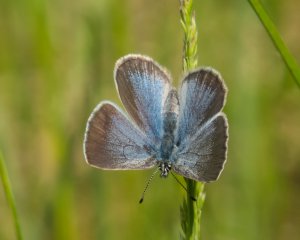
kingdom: Animalia
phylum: Arthropoda
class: Insecta
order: Lepidoptera
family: Lycaenidae
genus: Glaucopsyche
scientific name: Glaucopsyche lygdamus
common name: Silvery Blue
